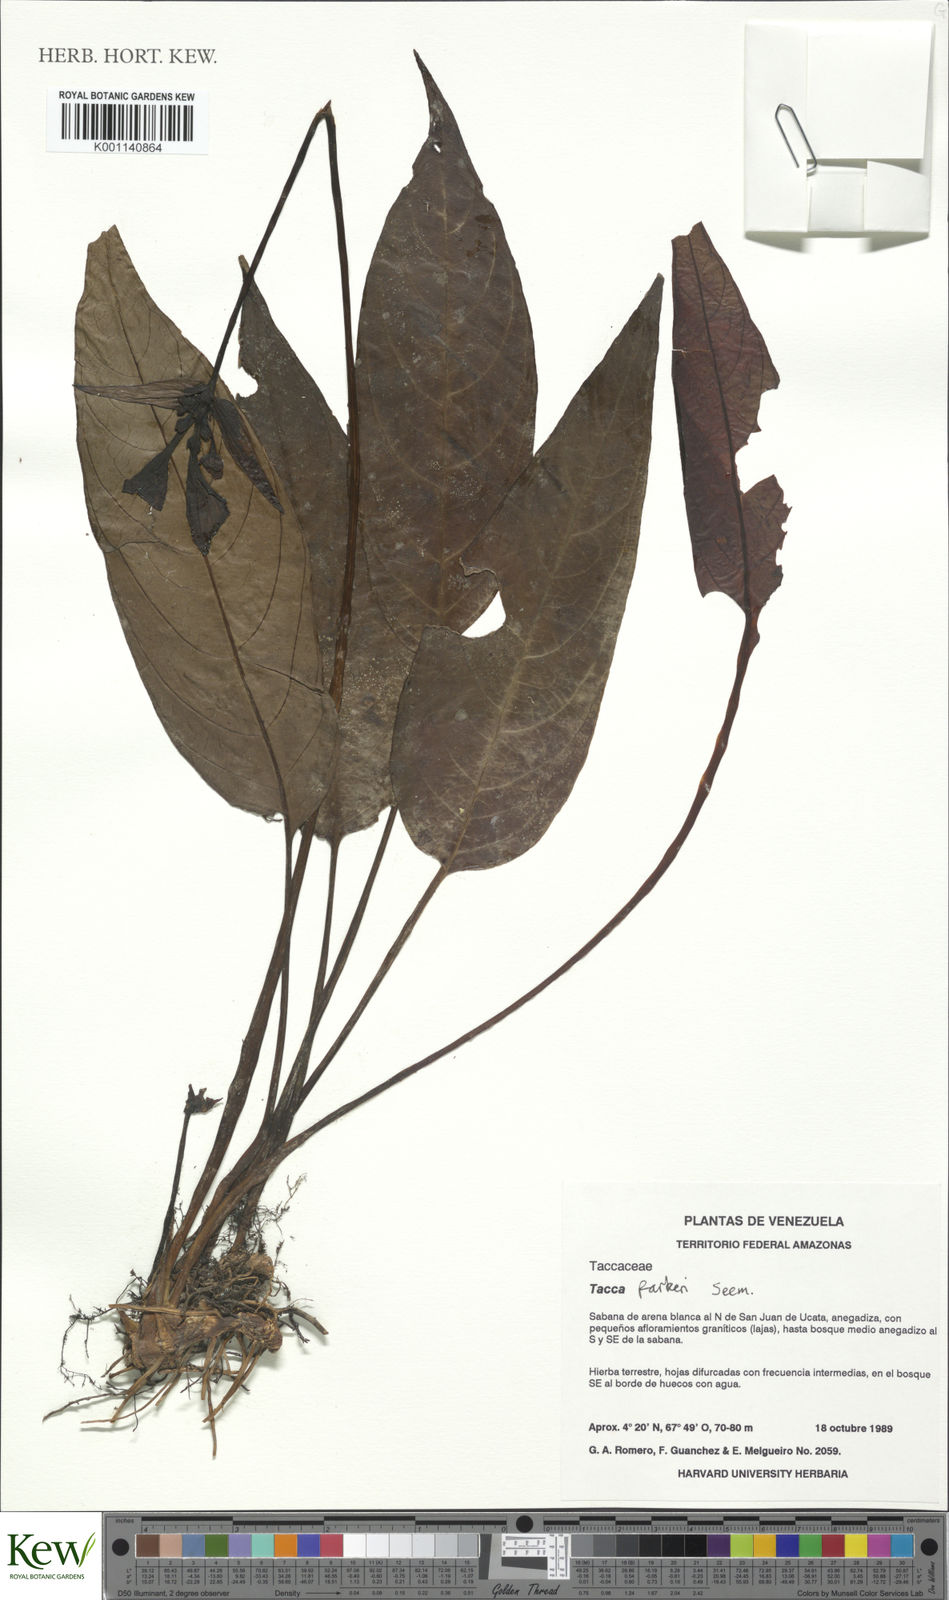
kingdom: Plantae
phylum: Tracheophyta
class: Liliopsida
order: Dioscoreales
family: Dioscoreaceae
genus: Tacca
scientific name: Tacca parkeri
